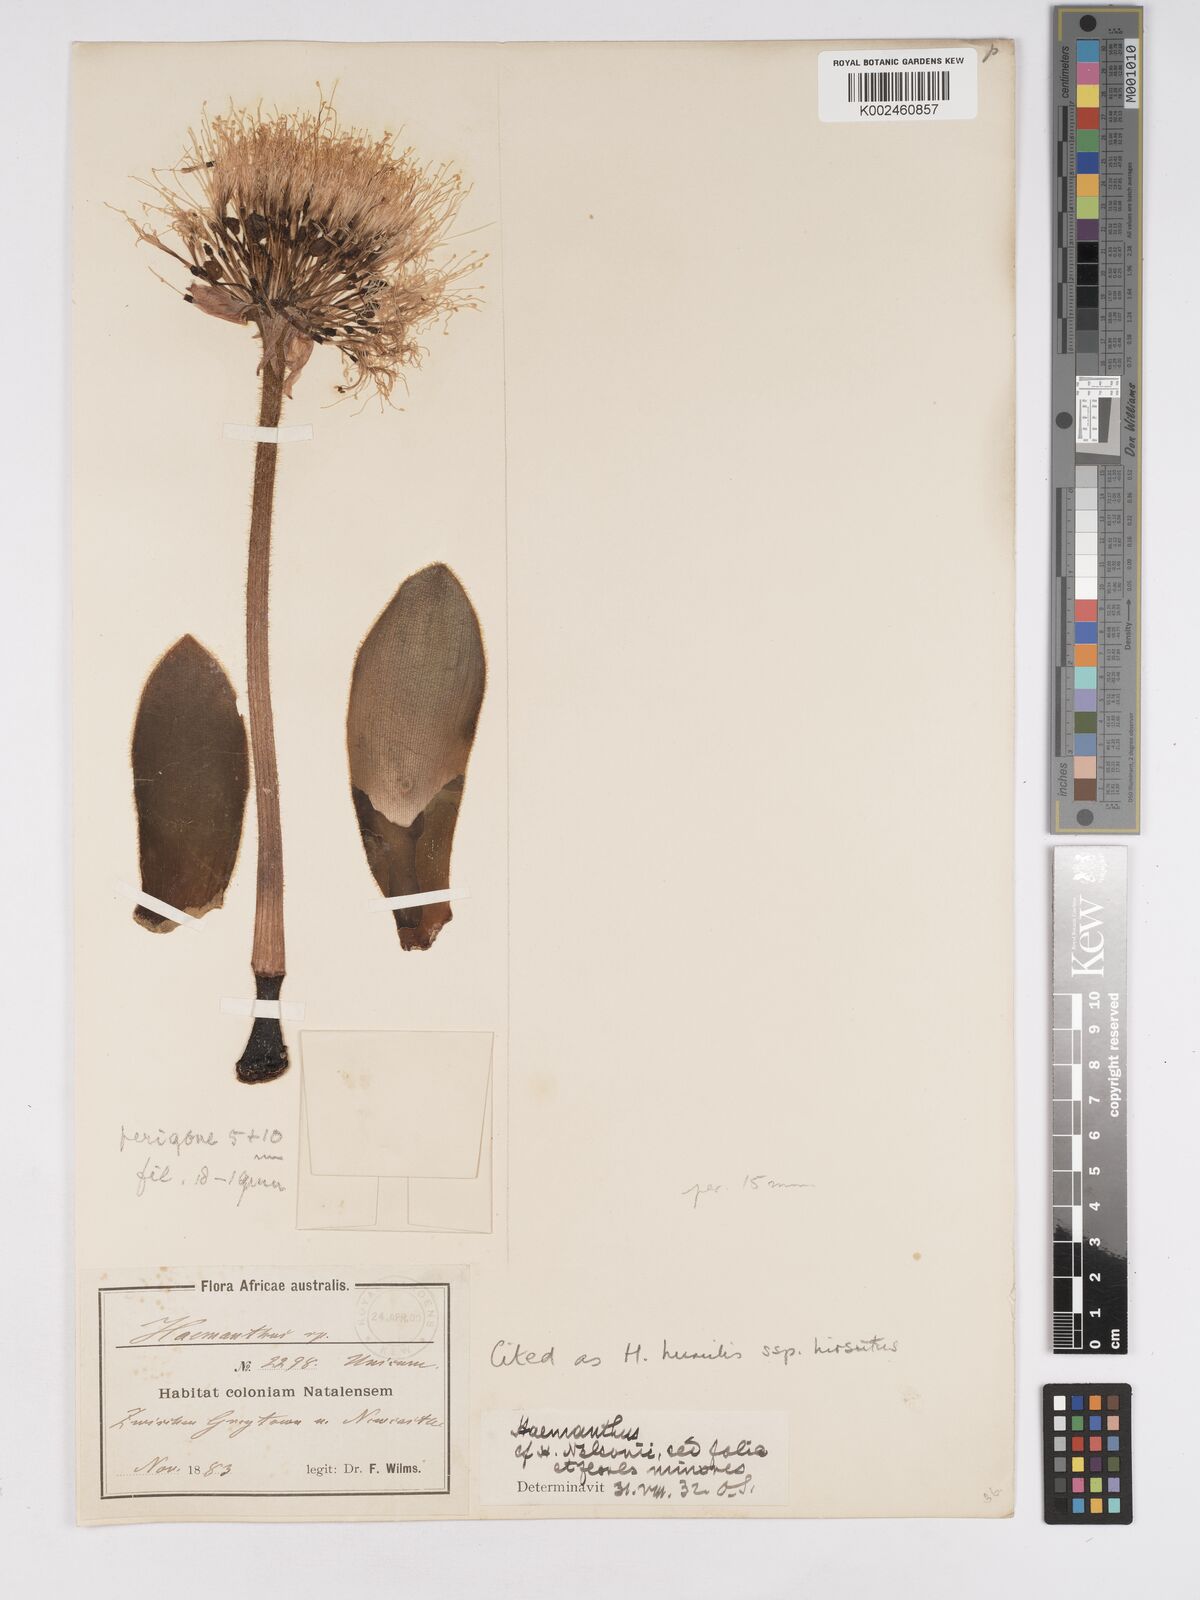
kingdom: Plantae
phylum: Tracheophyta
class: Liliopsida
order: Asparagales
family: Amaryllidaceae
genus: Haemanthus
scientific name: Haemanthus humilis
